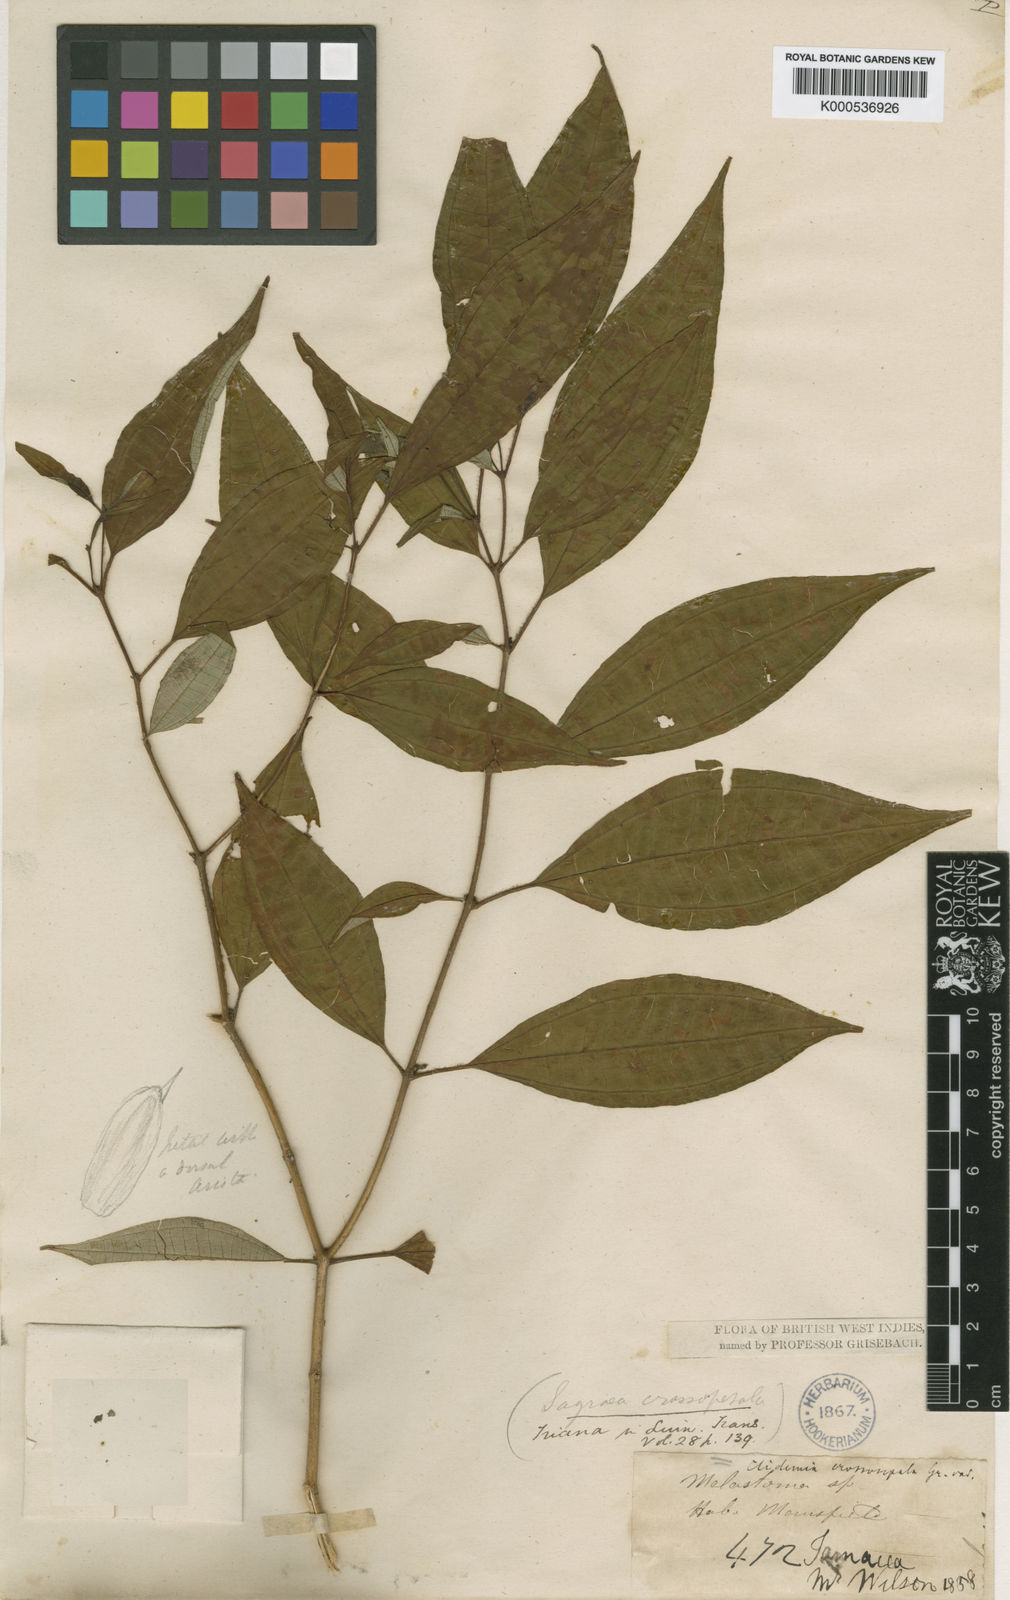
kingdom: Plantae
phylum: Tracheophyta
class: Magnoliopsida
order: Myrtales
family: Melastomataceae
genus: Miconia
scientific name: Miconia crossosepala
